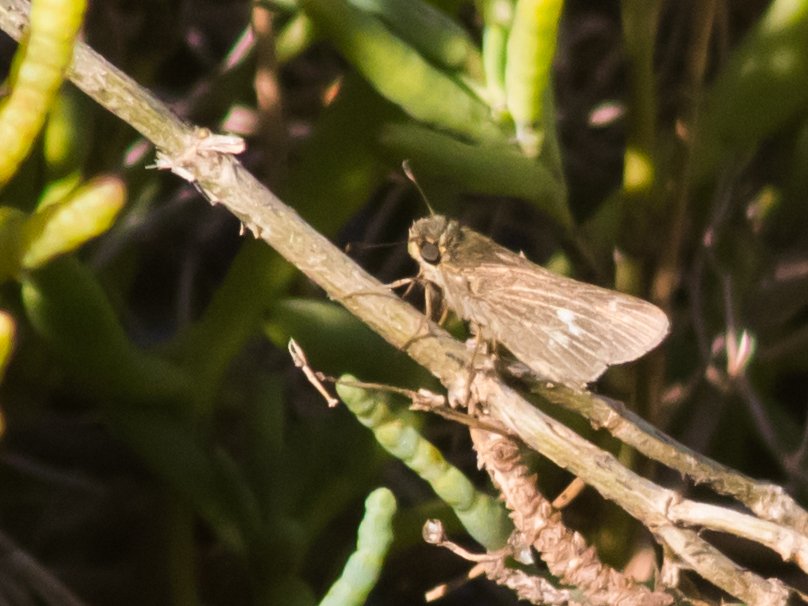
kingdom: Animalia
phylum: Arthropoda
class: Insecta
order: Lepidoptera
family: Hesperiidae
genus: Panoquina
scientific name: Panoquina errans
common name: Wandering Skipper
